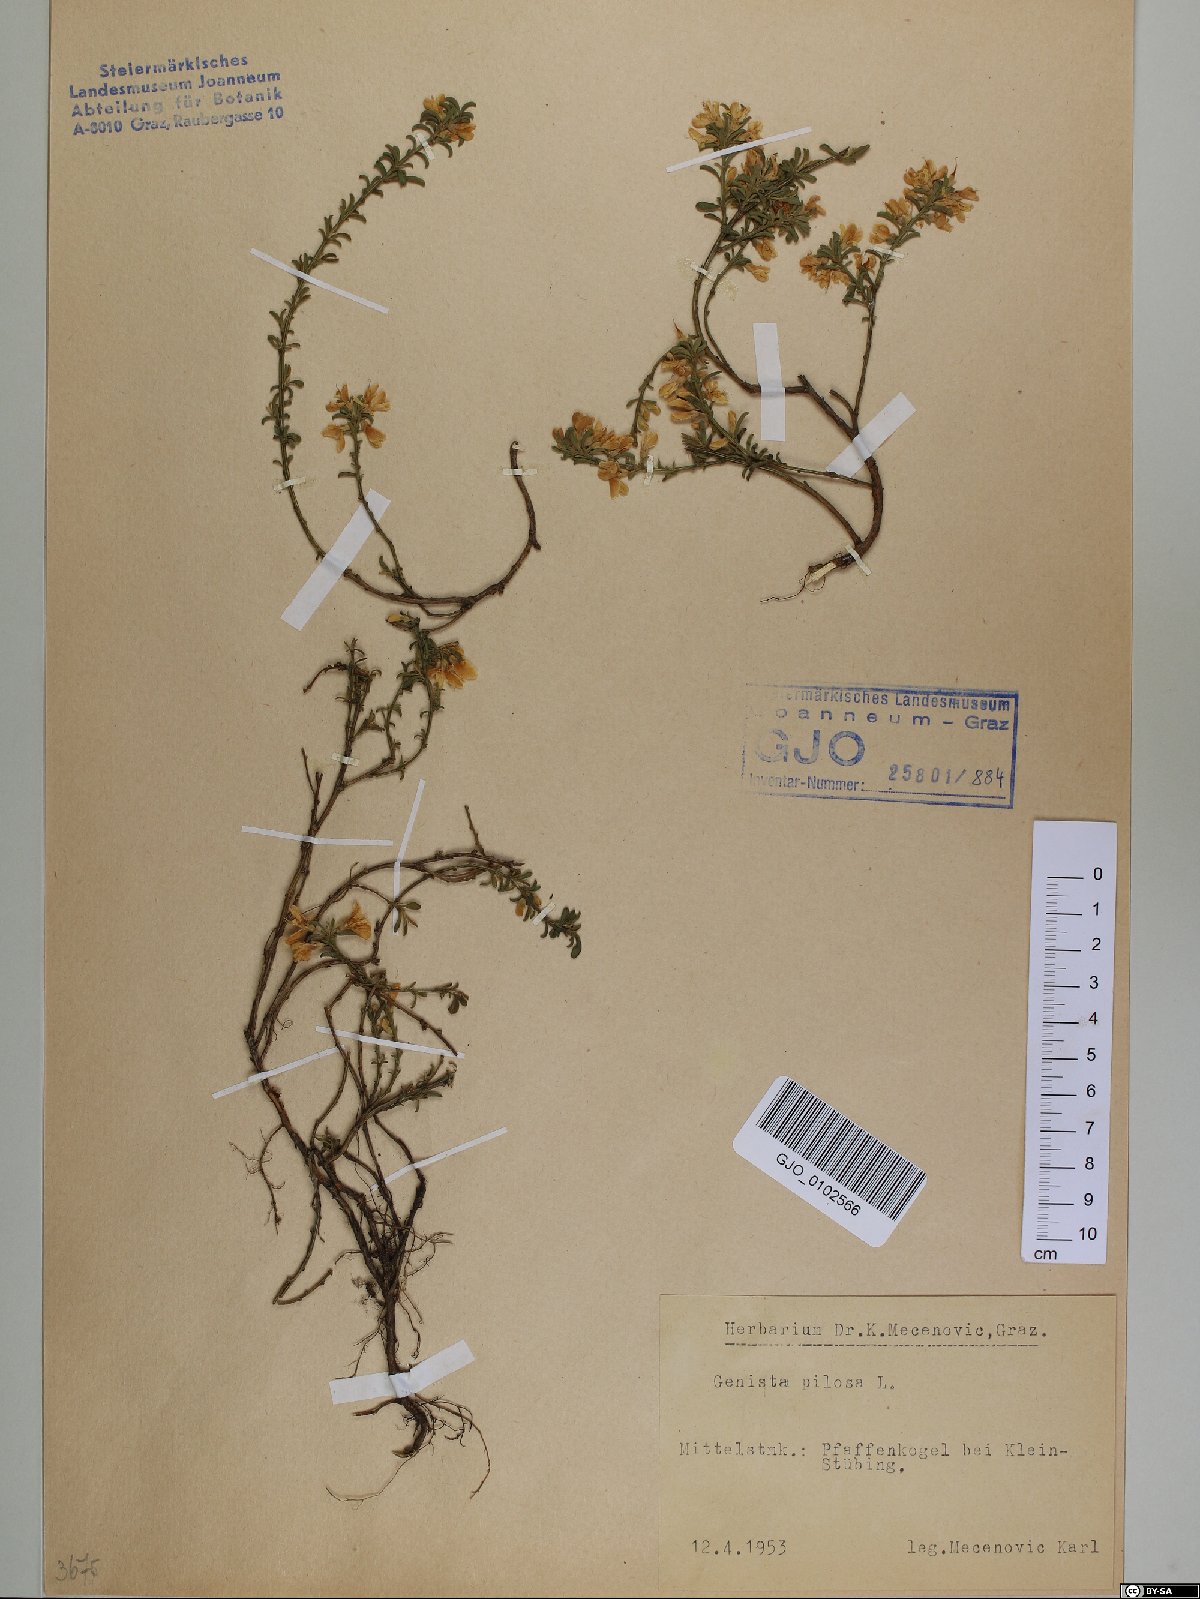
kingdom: Plantae
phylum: Tracheophyta
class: Magnoliopsida
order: Fabales
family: Fabaceae
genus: Genista
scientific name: Genista pilosa
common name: Hairy greenweed
